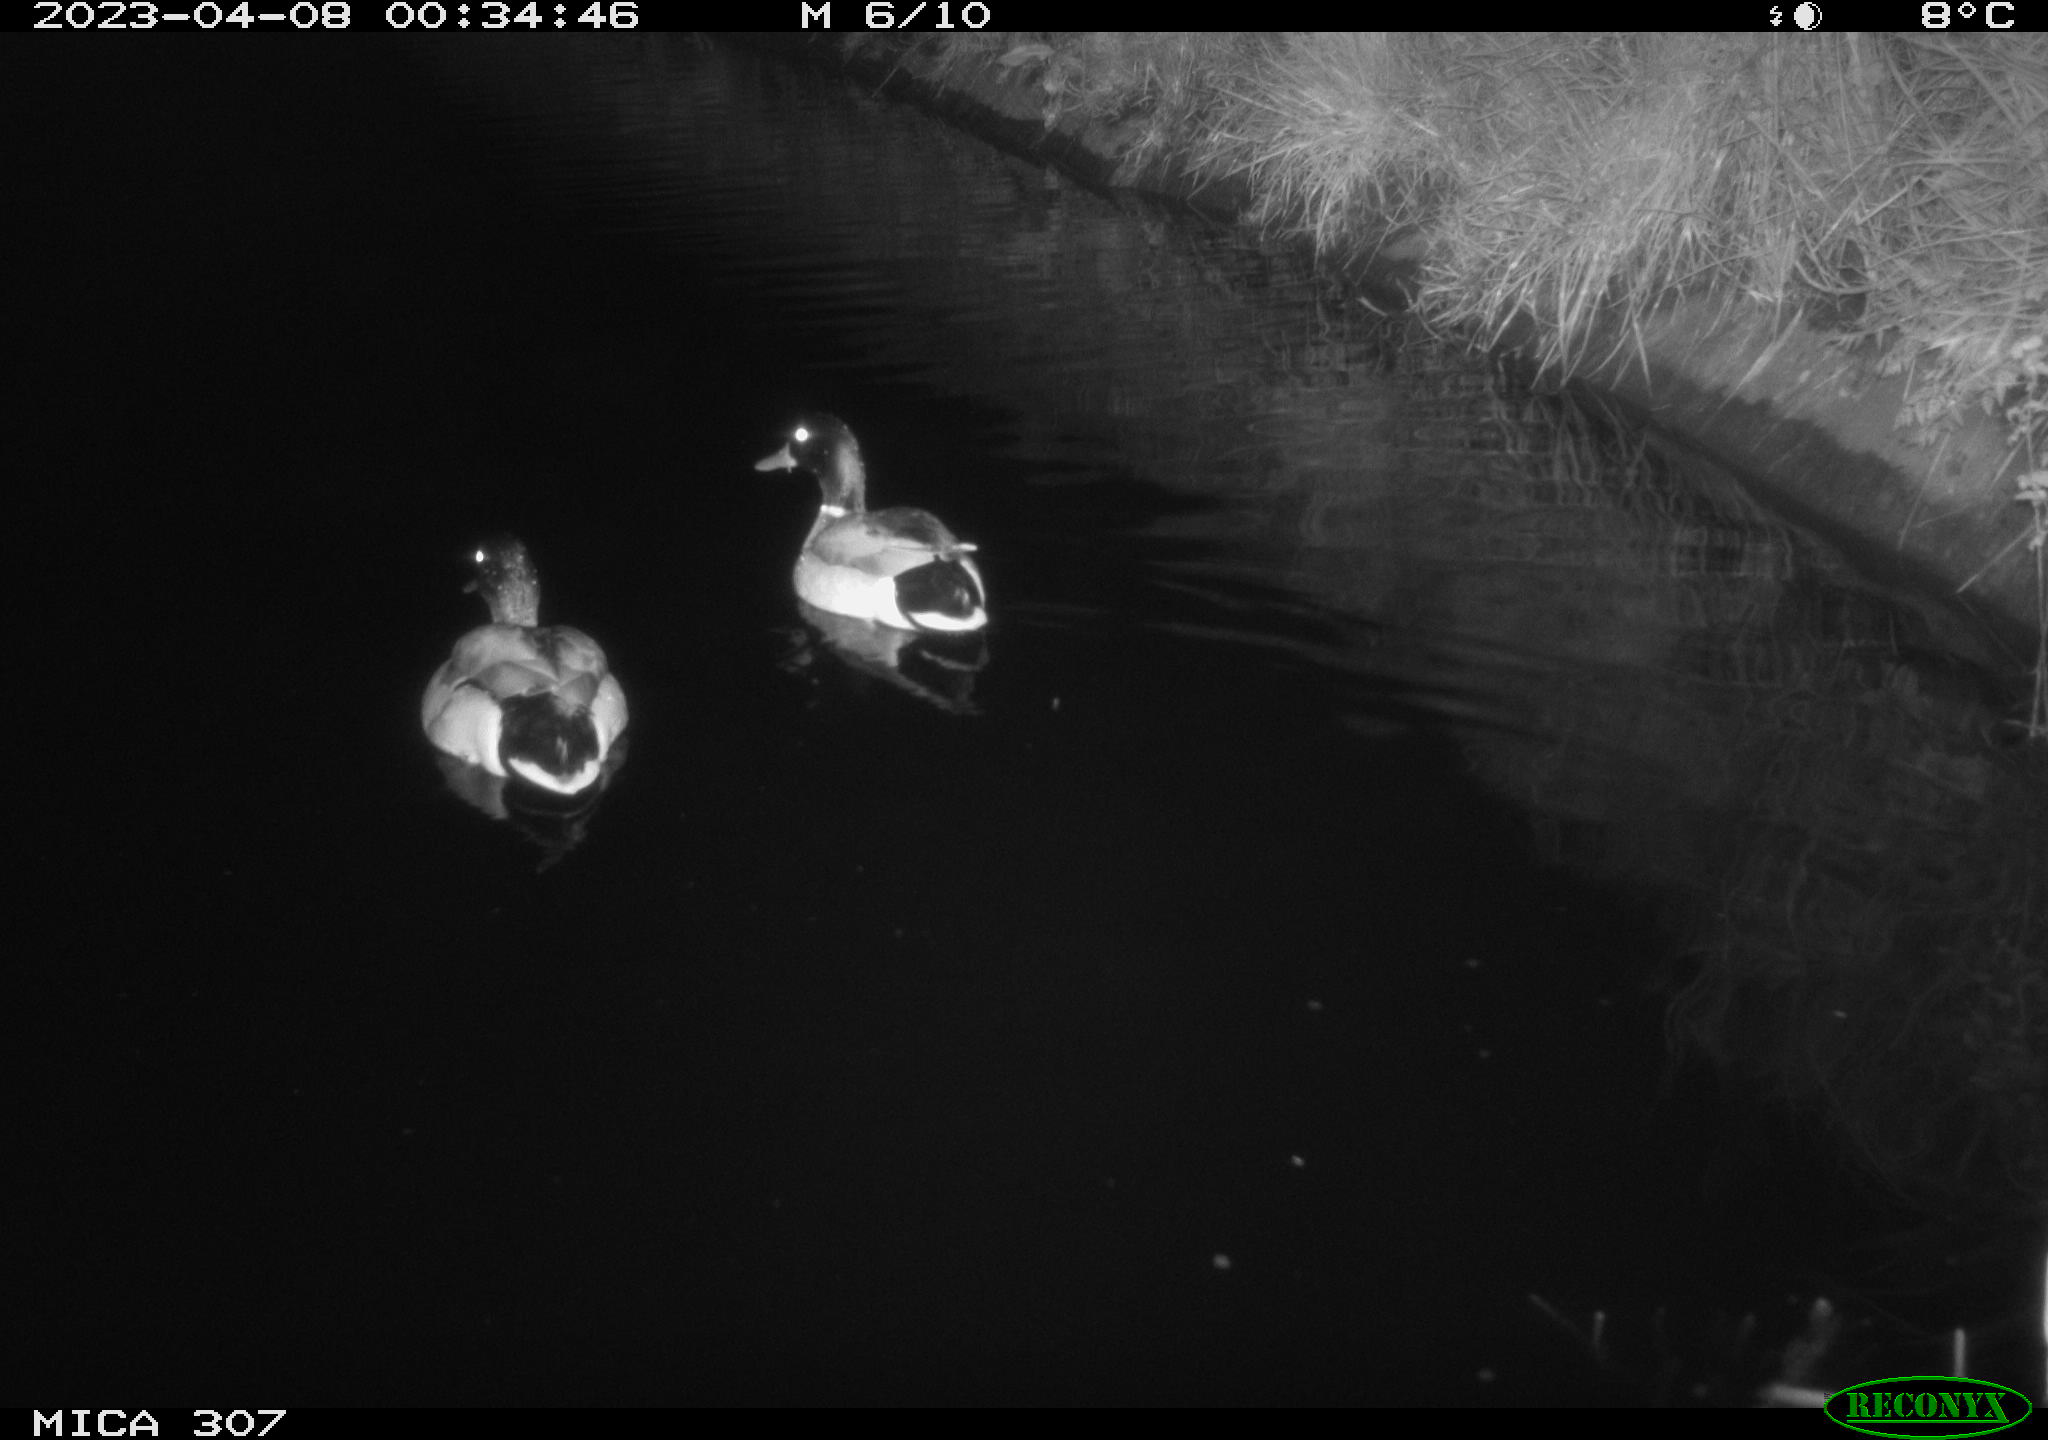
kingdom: Animalia
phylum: Chordata
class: Aves
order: Anseriformes
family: Anatidae
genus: Anas
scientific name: Anas
